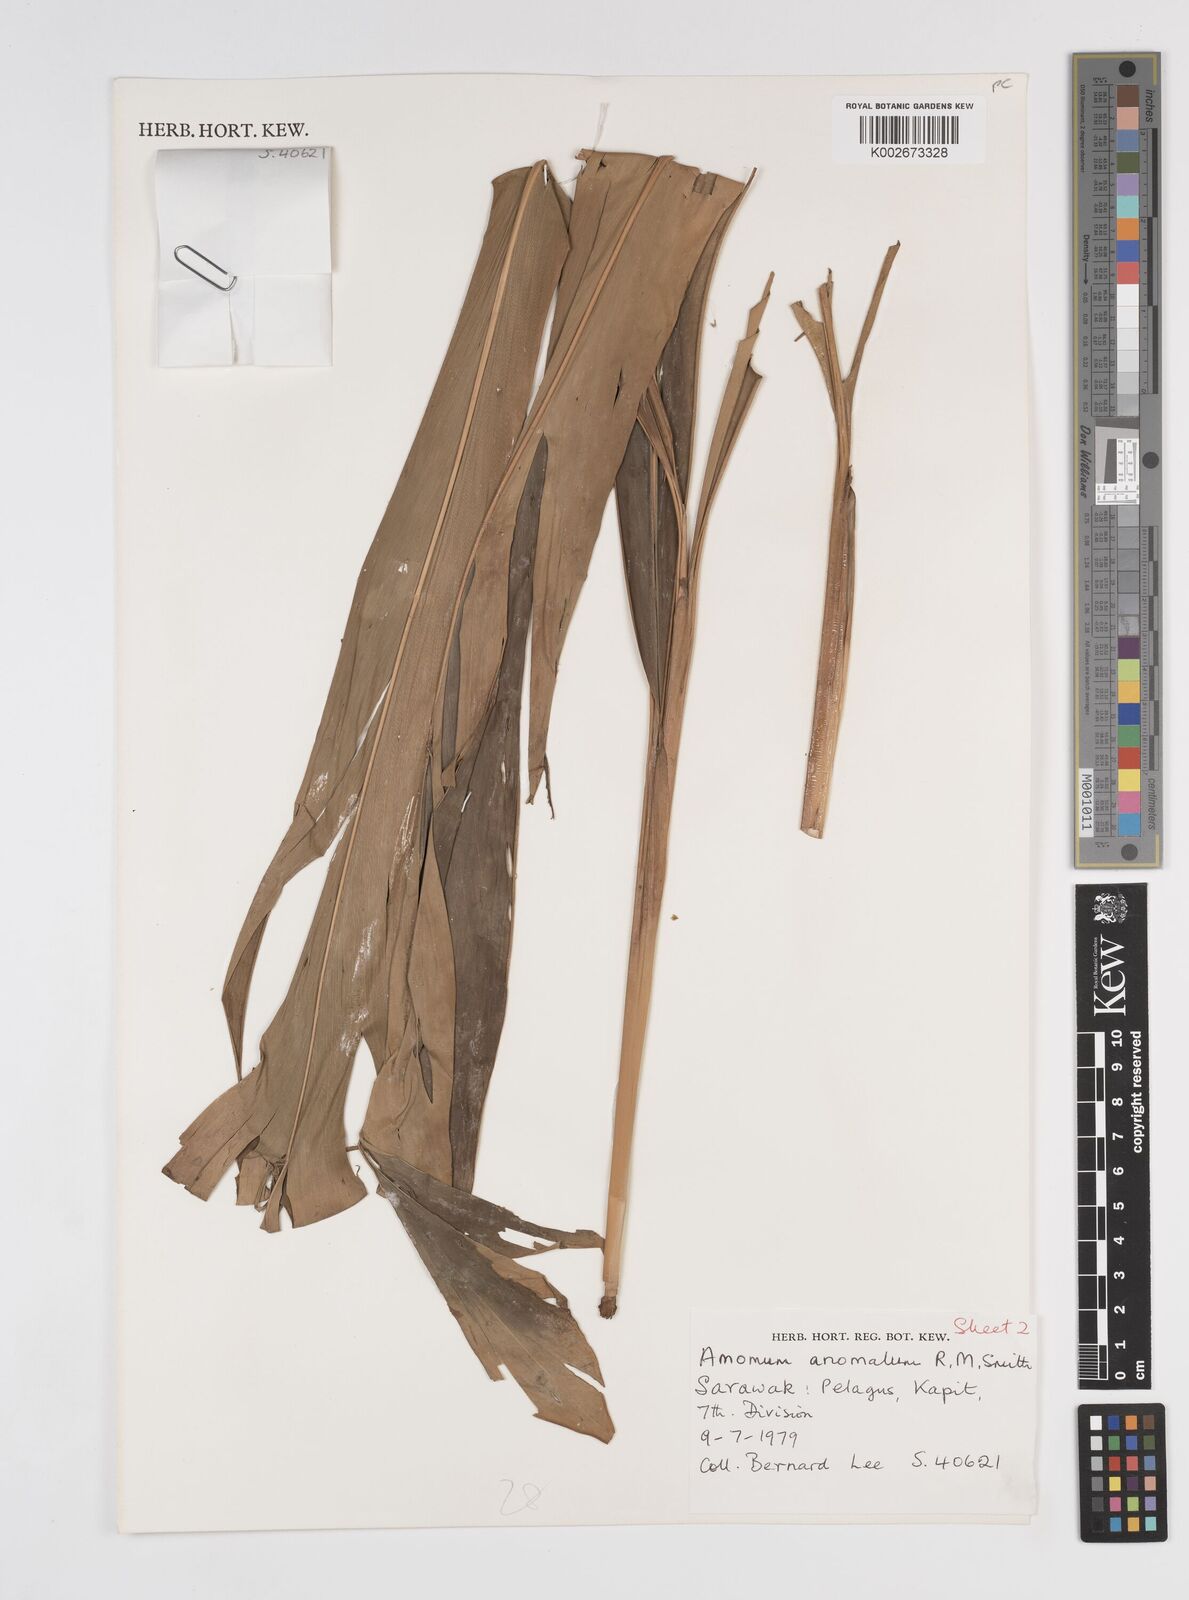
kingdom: Plantae
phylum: Tracheophyta
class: Liliopsida
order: Zingiberales
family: Zingiberaceae
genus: Sulettaria
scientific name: Sulettaria anomala
